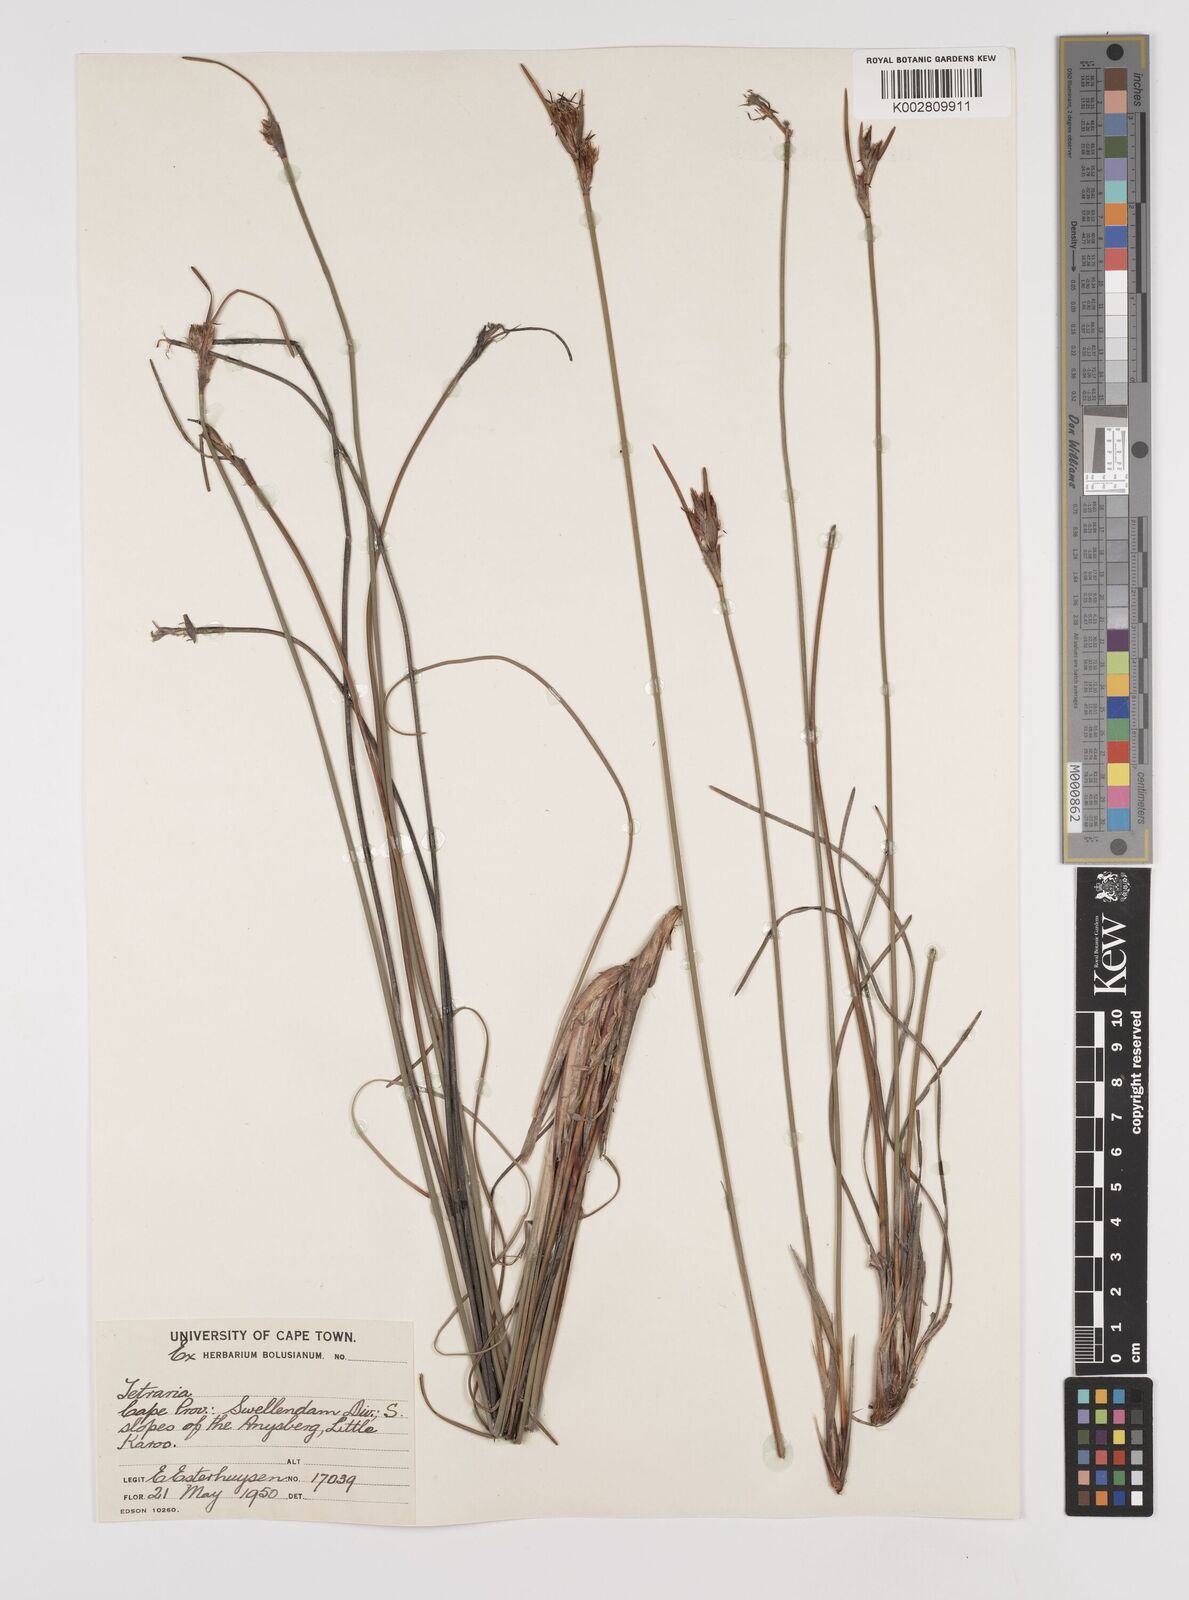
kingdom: Plantae
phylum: Tracheophyta
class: Liliopsida
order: Poales
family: Cyperaceae
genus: Schoenus
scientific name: Schoenus megacarpus
